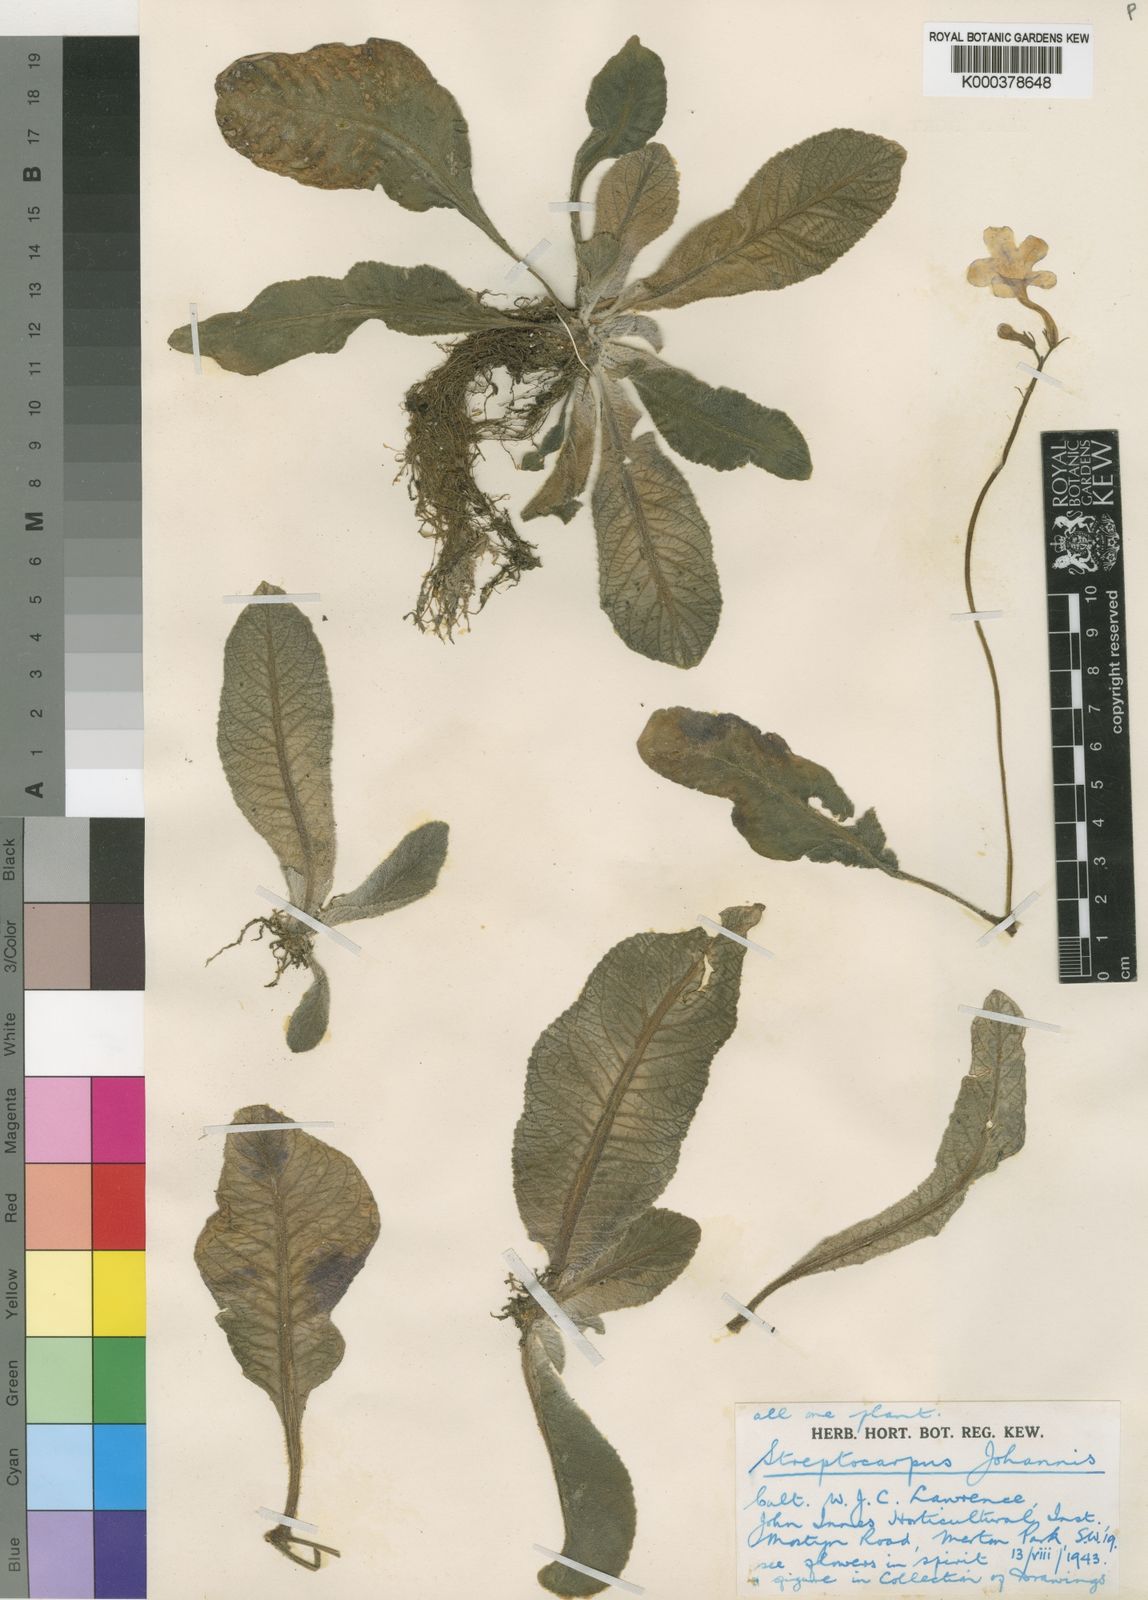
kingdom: Plantae
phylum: Tracheophyta
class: Magnoliopsida
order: Lamiales
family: Gesneriaceae
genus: Streptocarpus
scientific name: Streptocarpus johannis
